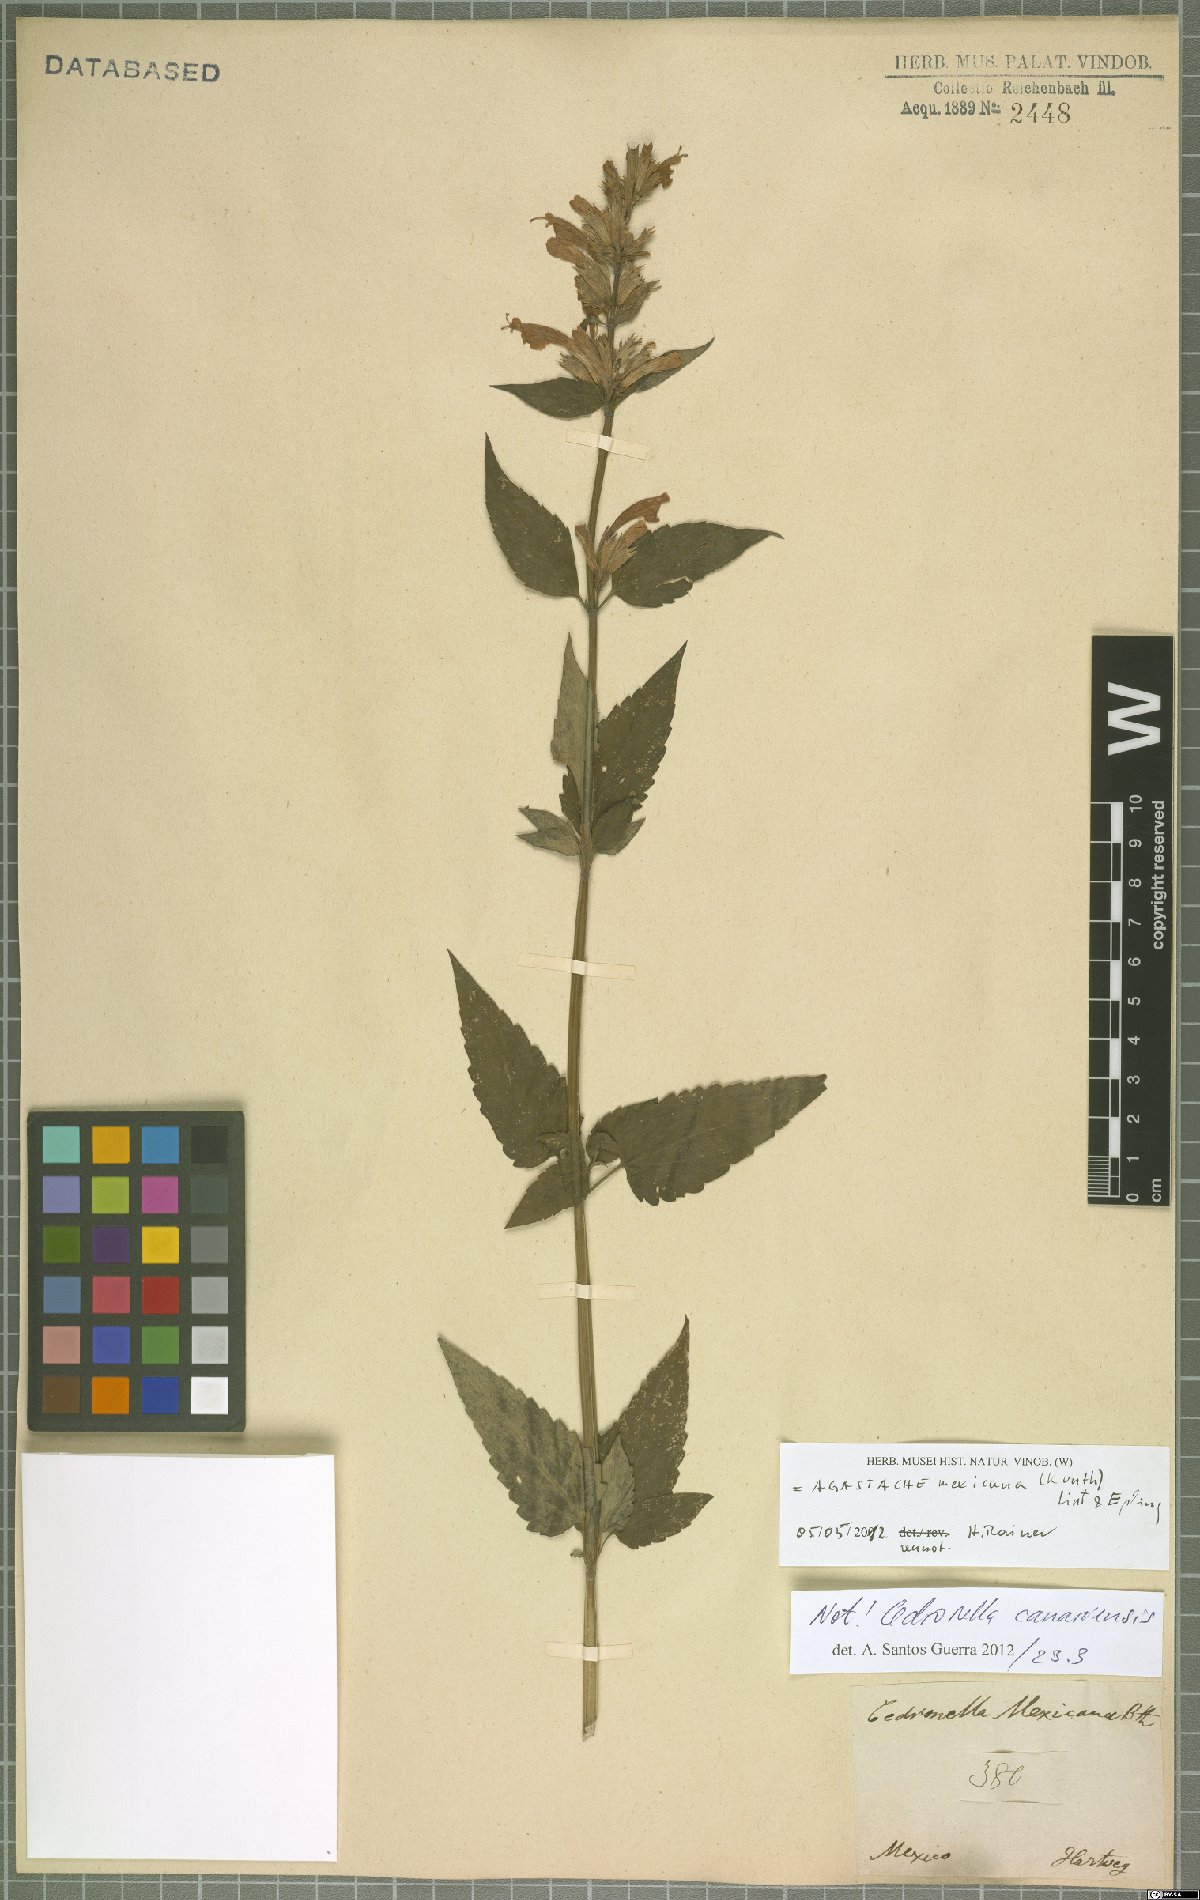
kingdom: Plantae
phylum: Tracheophyta
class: Magnoliopsida
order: Lamiales
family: Lamiaceae
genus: Agastache
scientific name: Agastache mexicana
